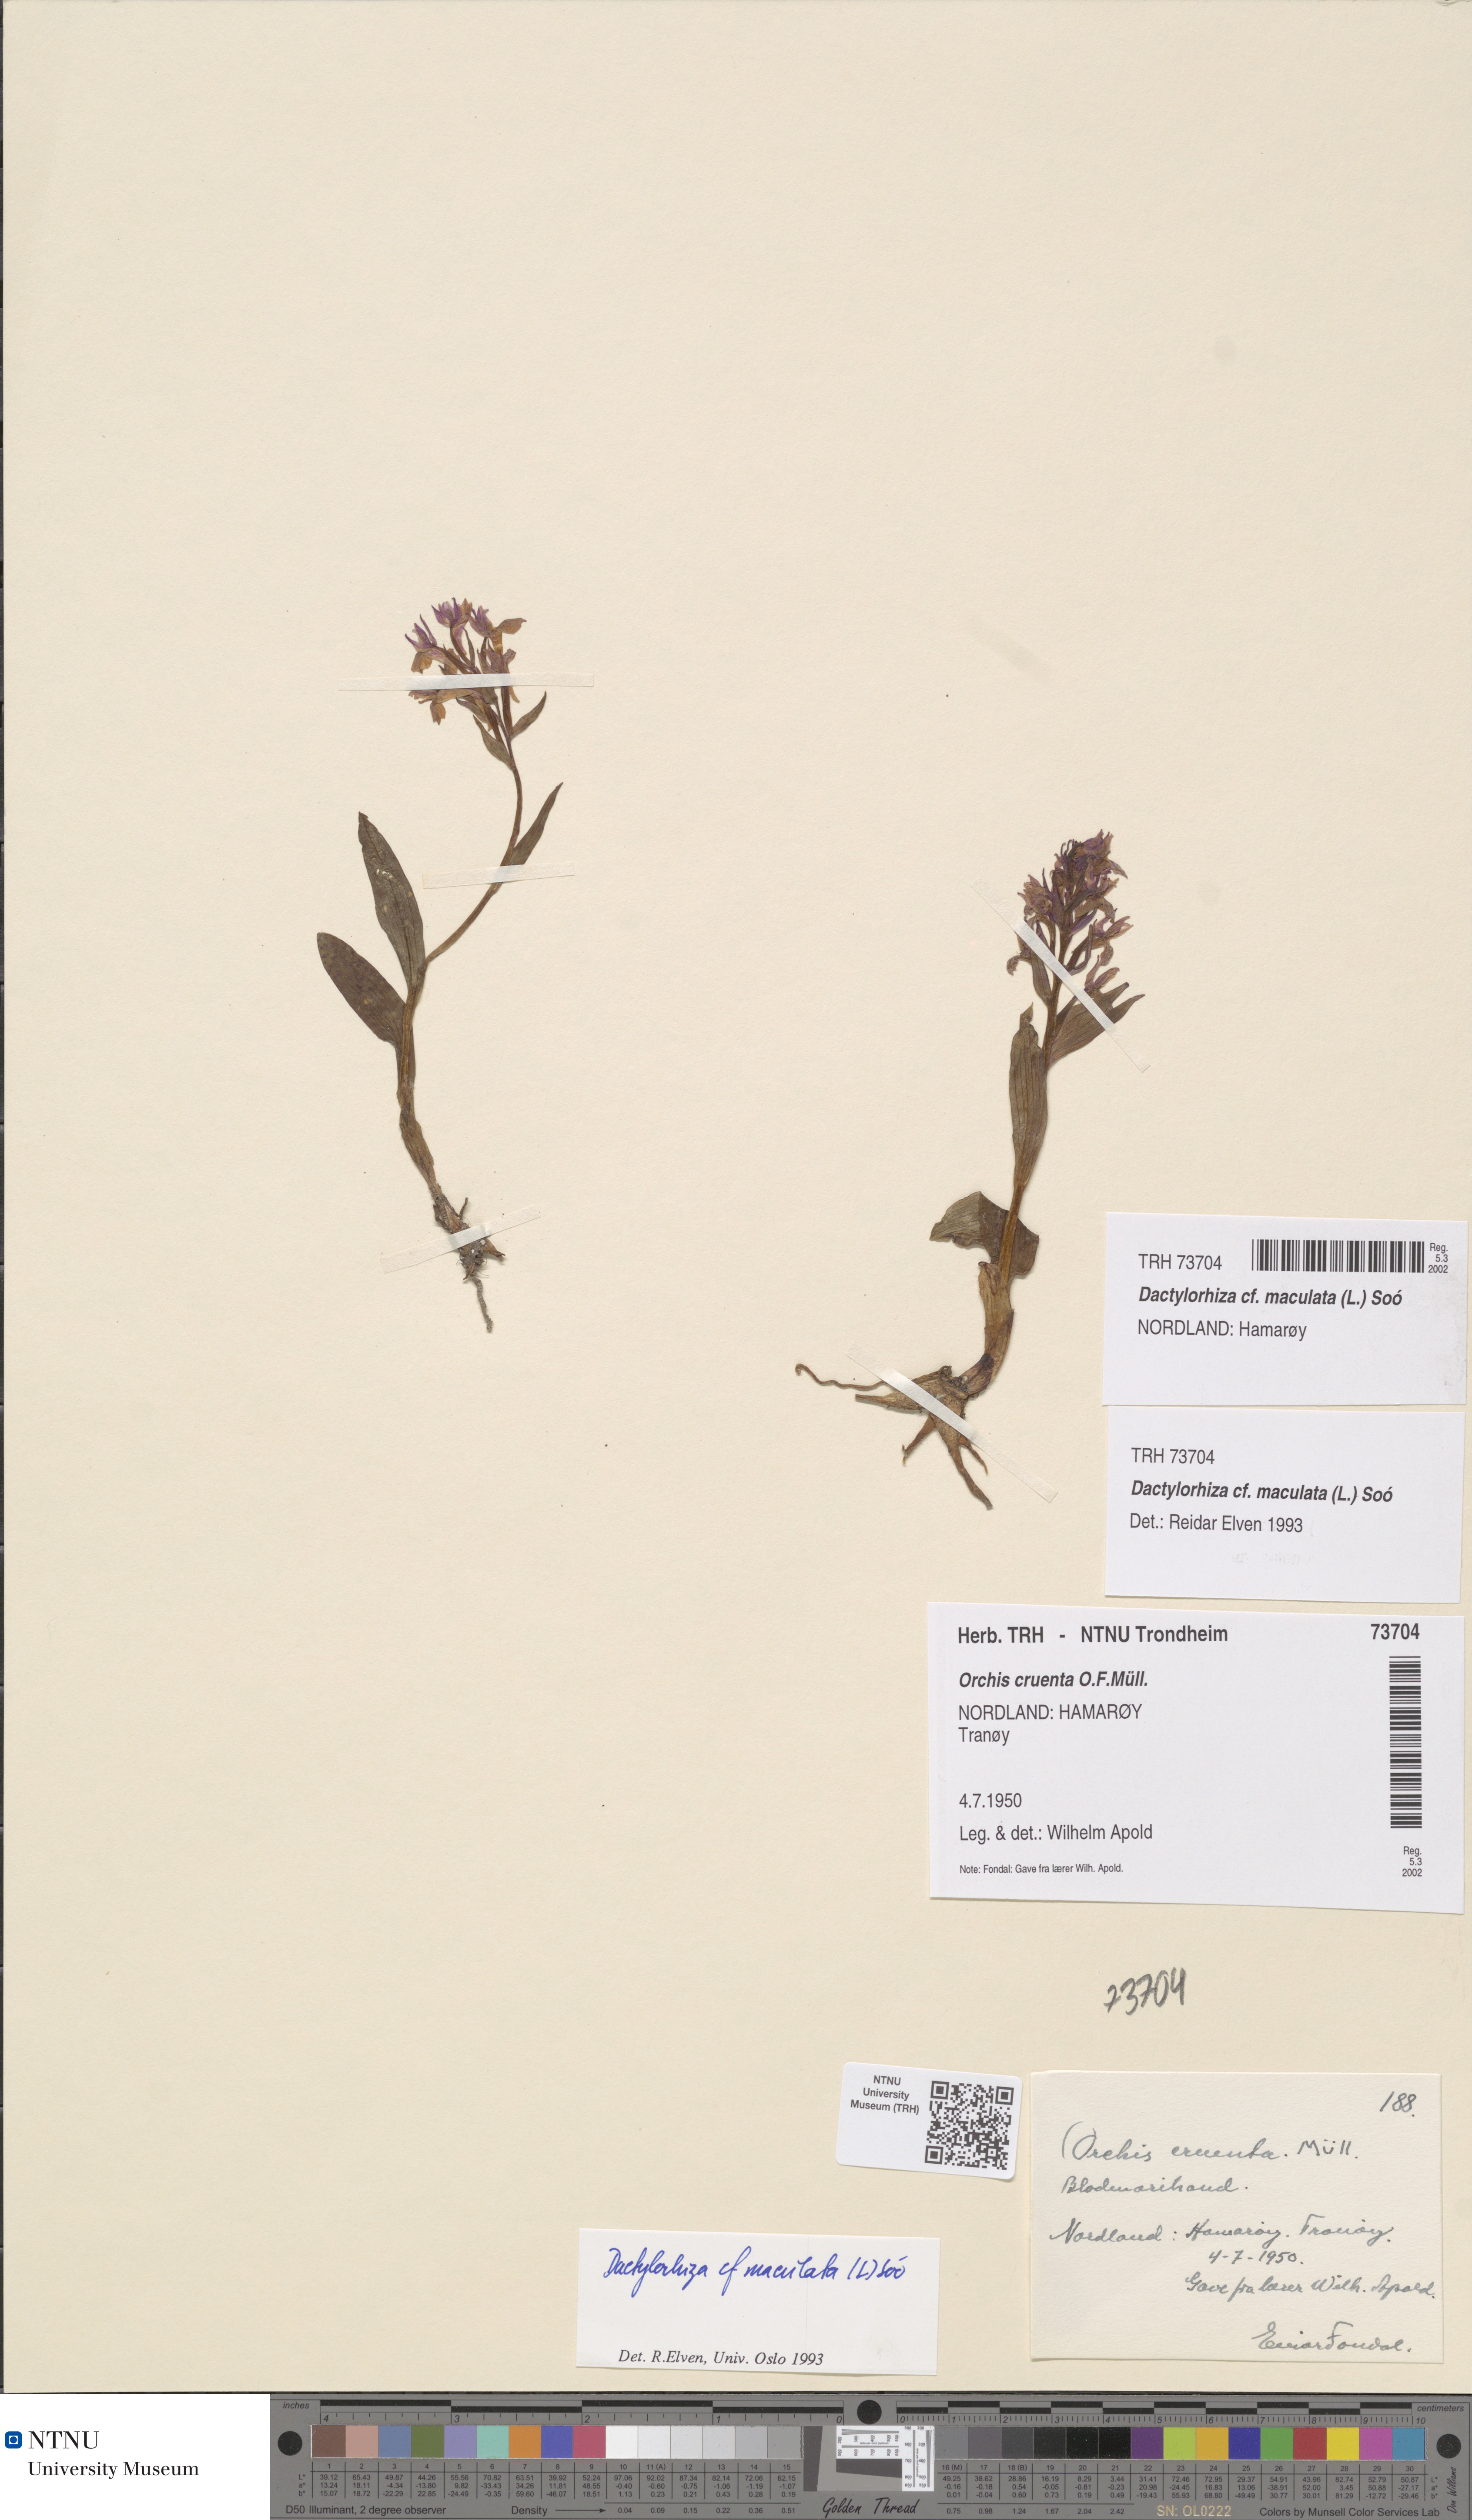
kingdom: Plantae
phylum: Tracheophyta
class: Liliopsida
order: Asparagales
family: Orchidaceae
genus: Dactylorhiza
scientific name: Dactylorhiza maculata
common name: Heath spotted-orchid
